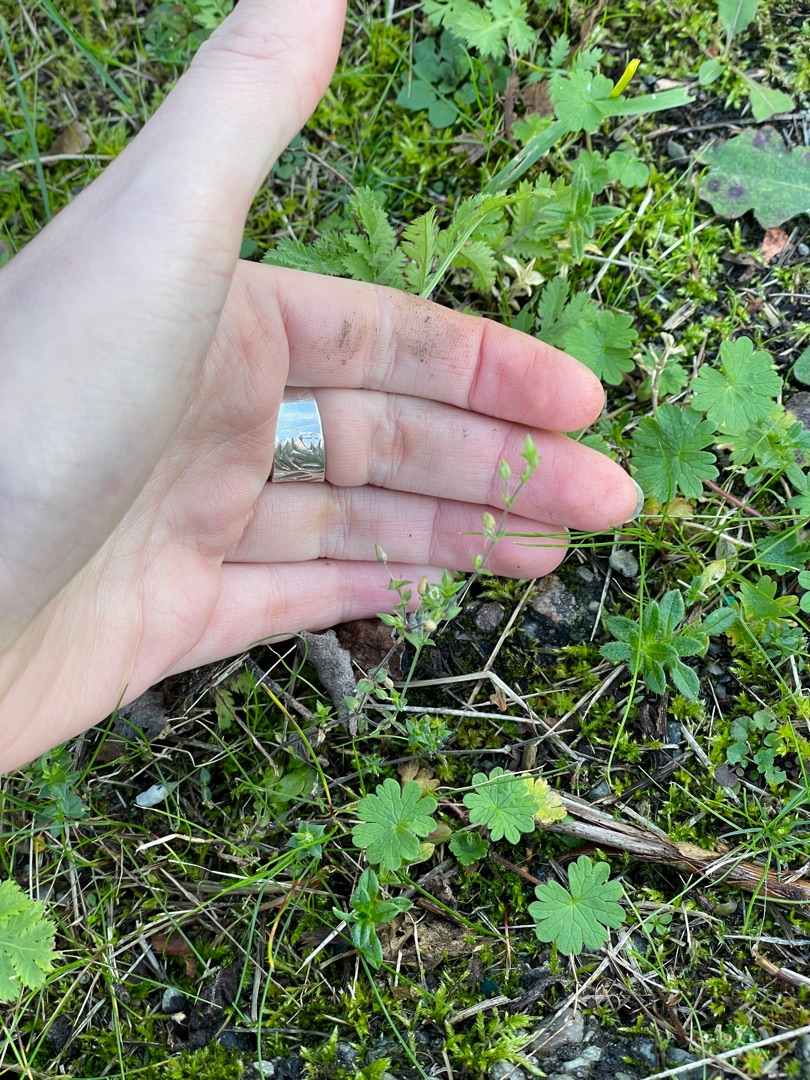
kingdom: Plantae
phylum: Tracheophyta
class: Magnoliopsida
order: Caryophyllales
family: Caryophyllaceae
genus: Arenaria
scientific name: Arenaria serpyllifolia
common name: Almindelig markarve
